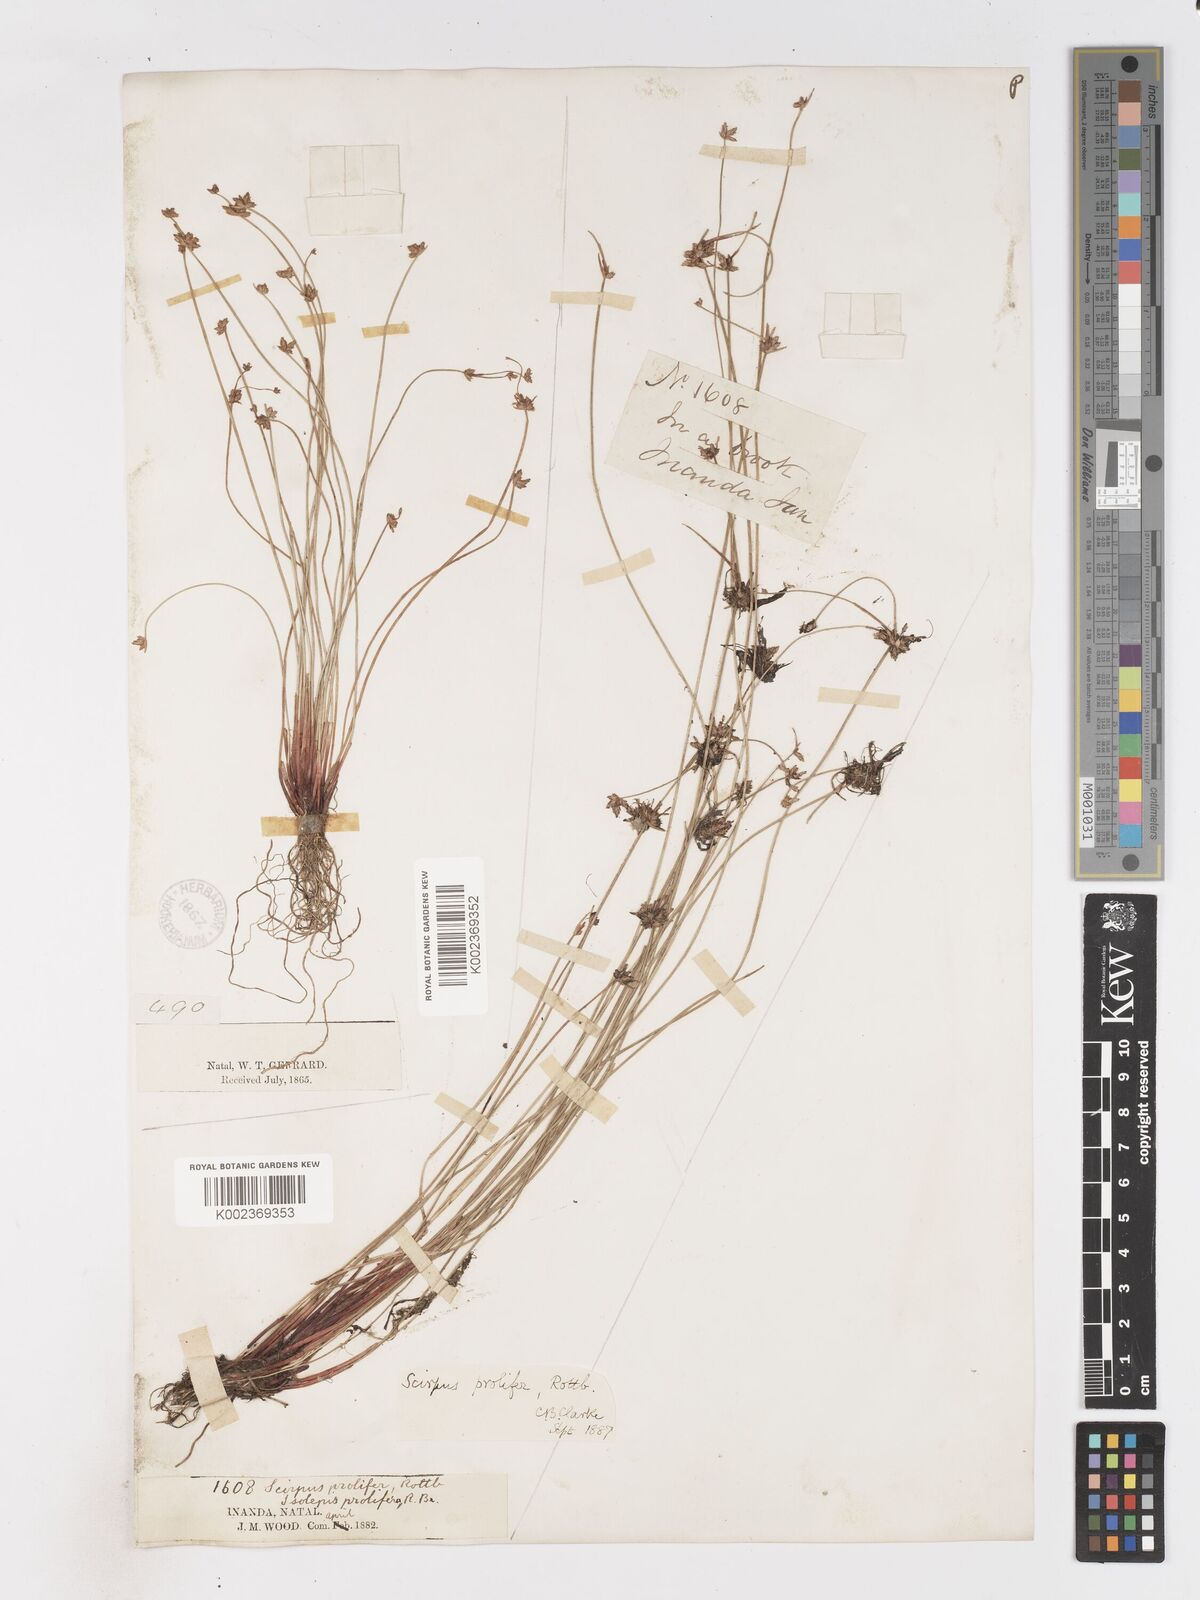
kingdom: Plantae
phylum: Tracheophyta
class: Liliopsida
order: Poales
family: Cyperaceae
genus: Isolepis
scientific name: Isolepis prolifera
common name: Proliferating bulrush
